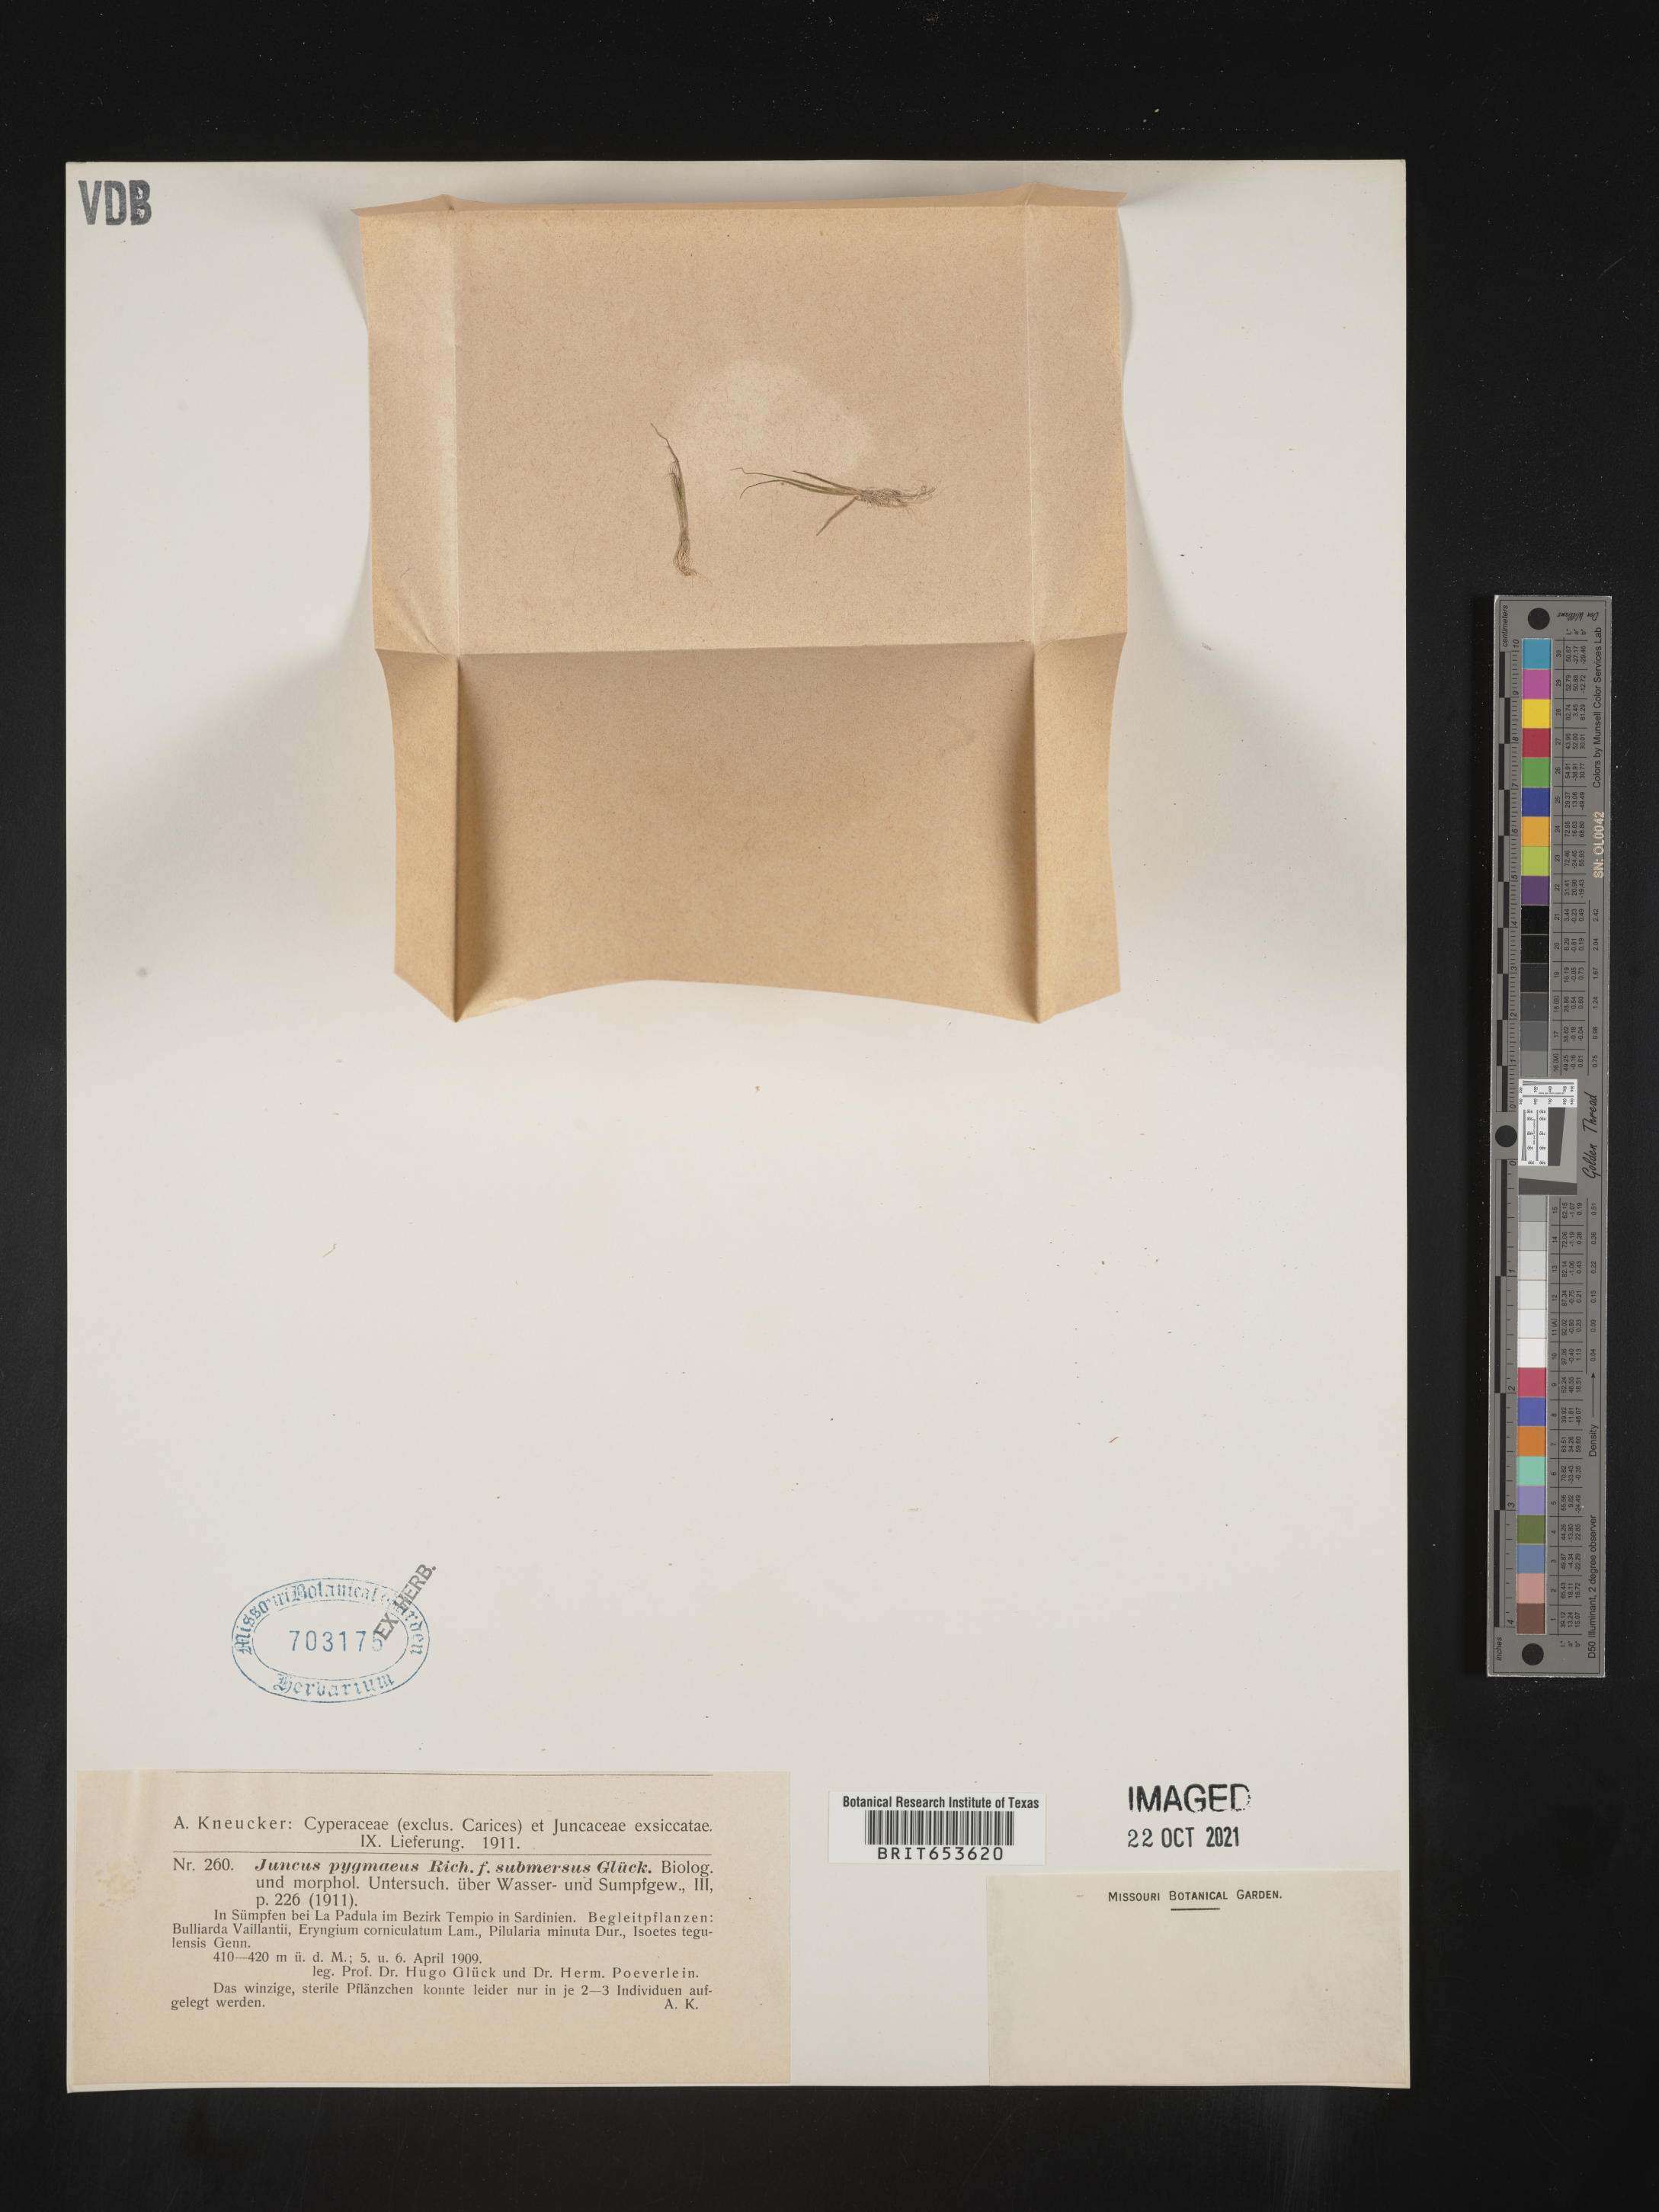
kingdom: Plantae
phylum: Tracheophyta
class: Liliopsida
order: Poales
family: Juncaceae
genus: Juncus
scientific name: Juncus
